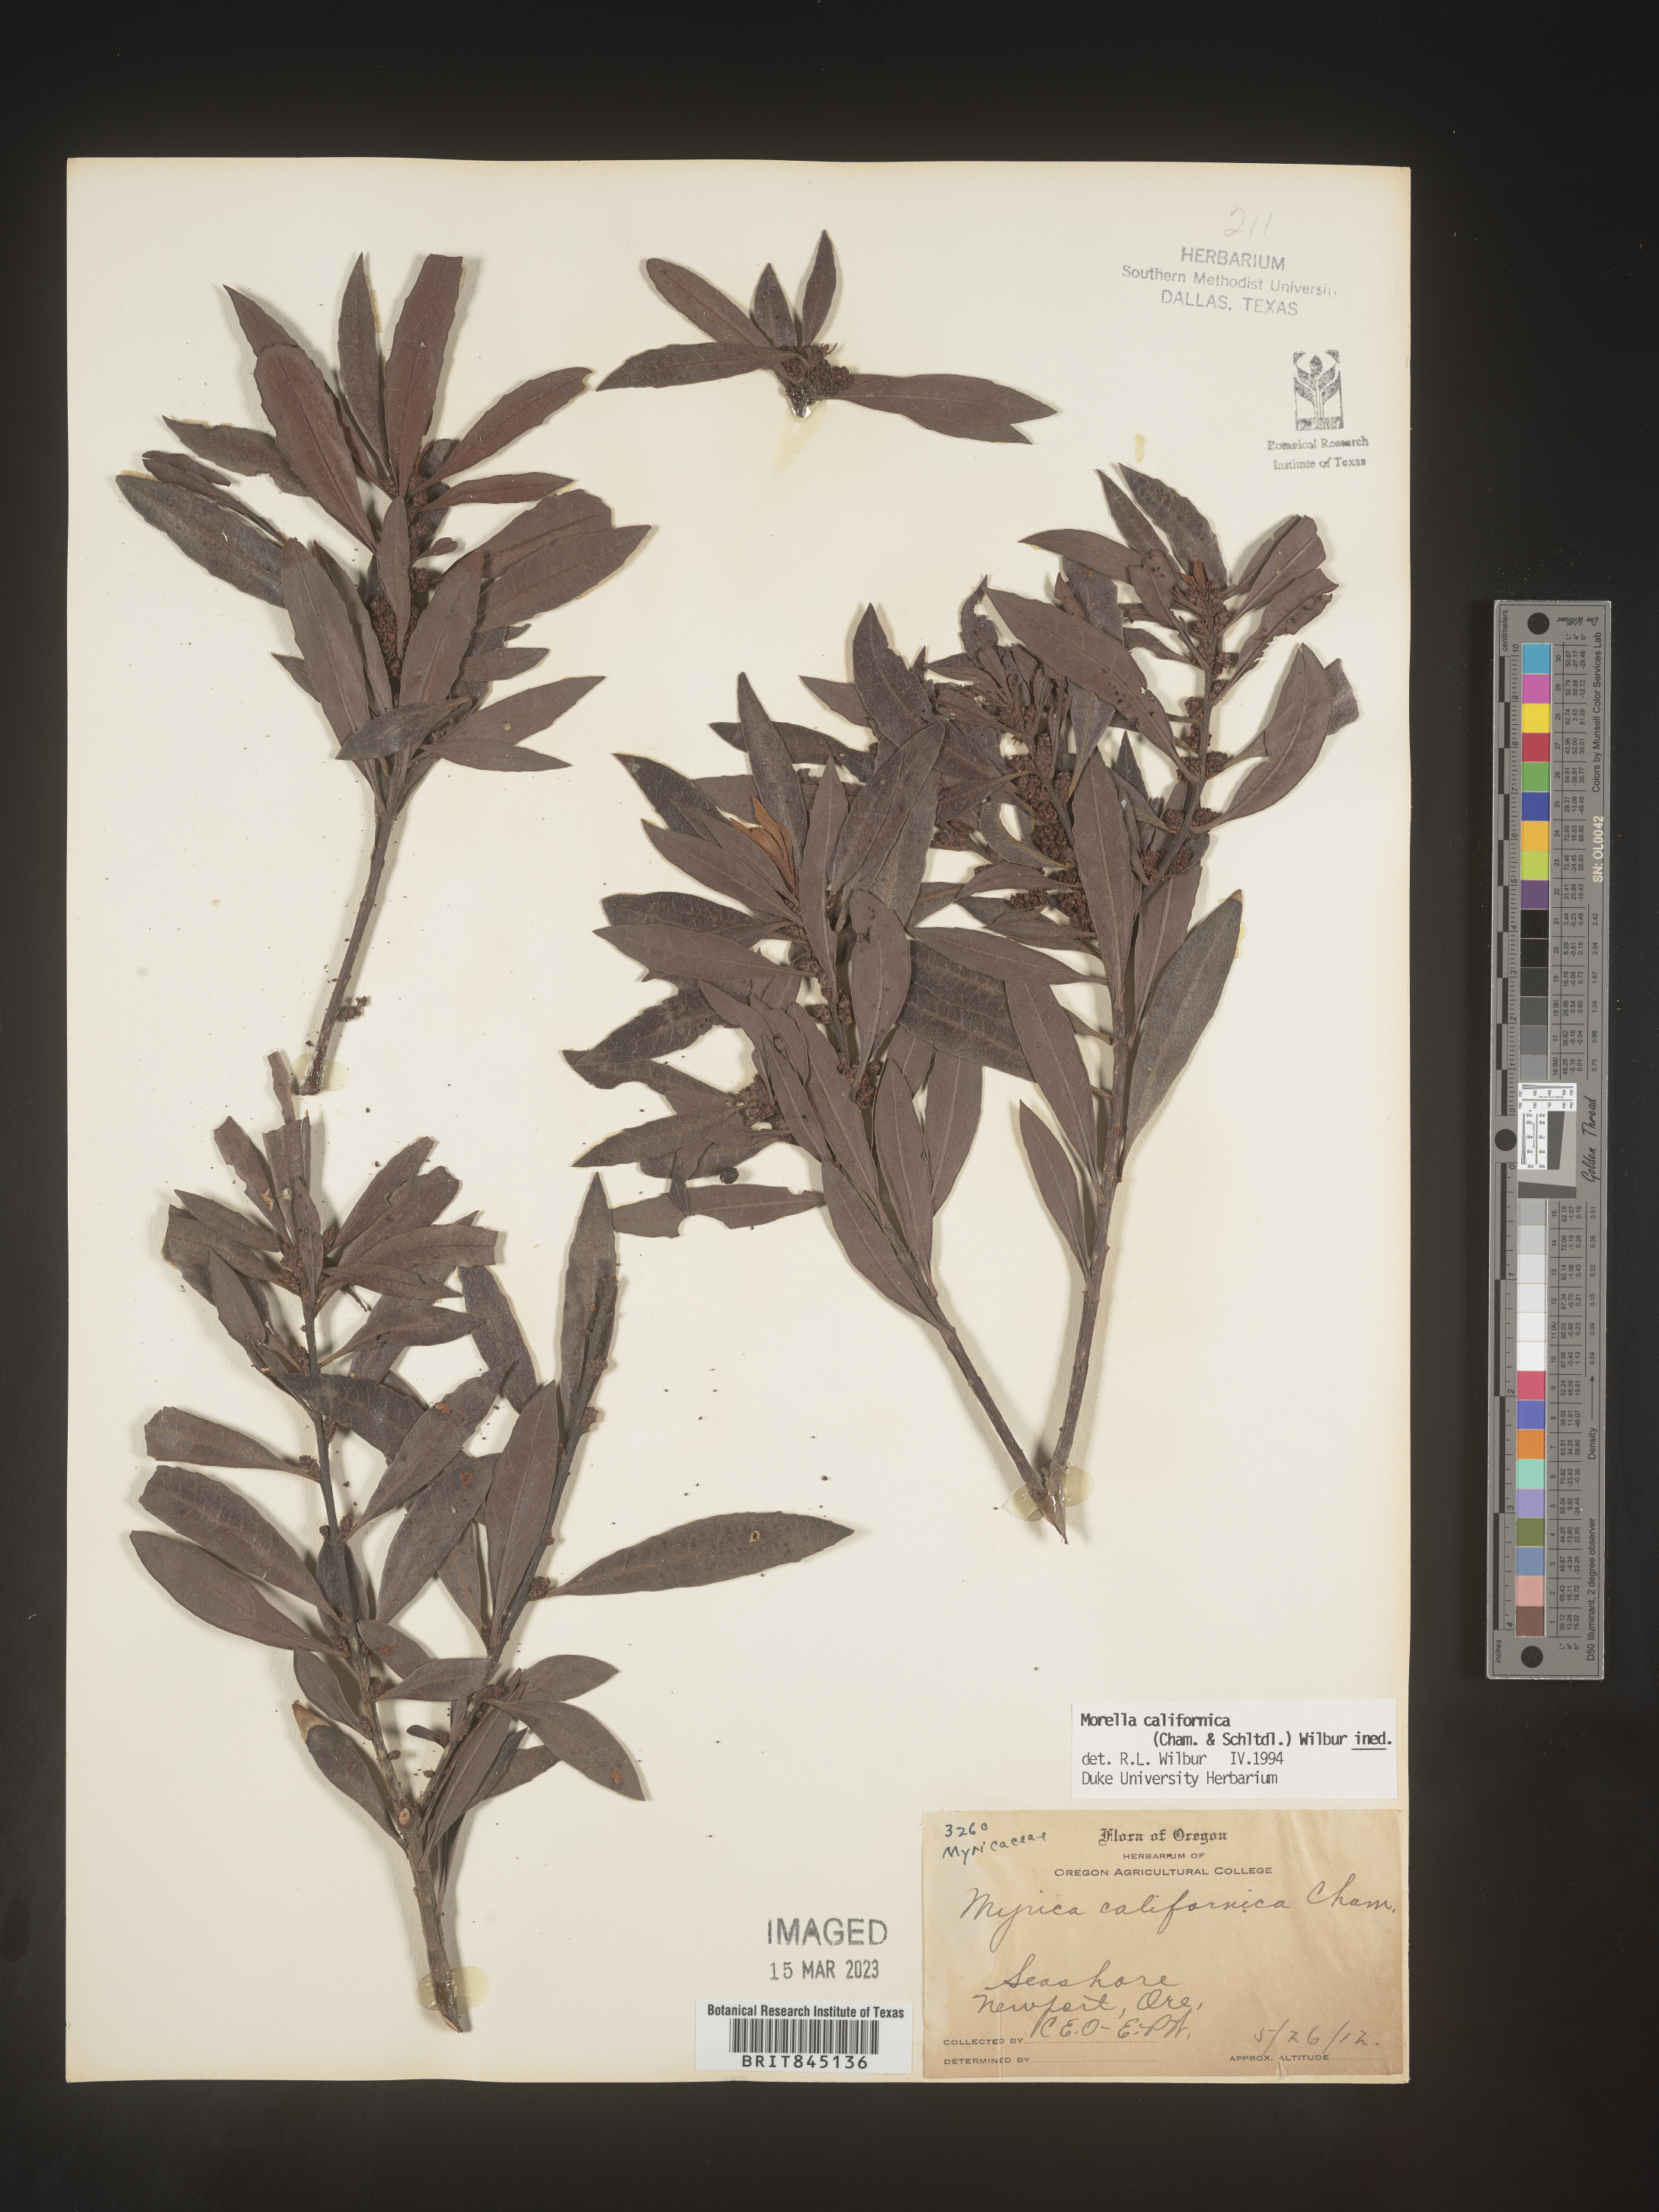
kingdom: Plantae
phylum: Tracheophyta
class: Magnoliopsida
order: Fagales
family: Myricaceae
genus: Morella
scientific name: Morella californica
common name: California wax-myrtle
